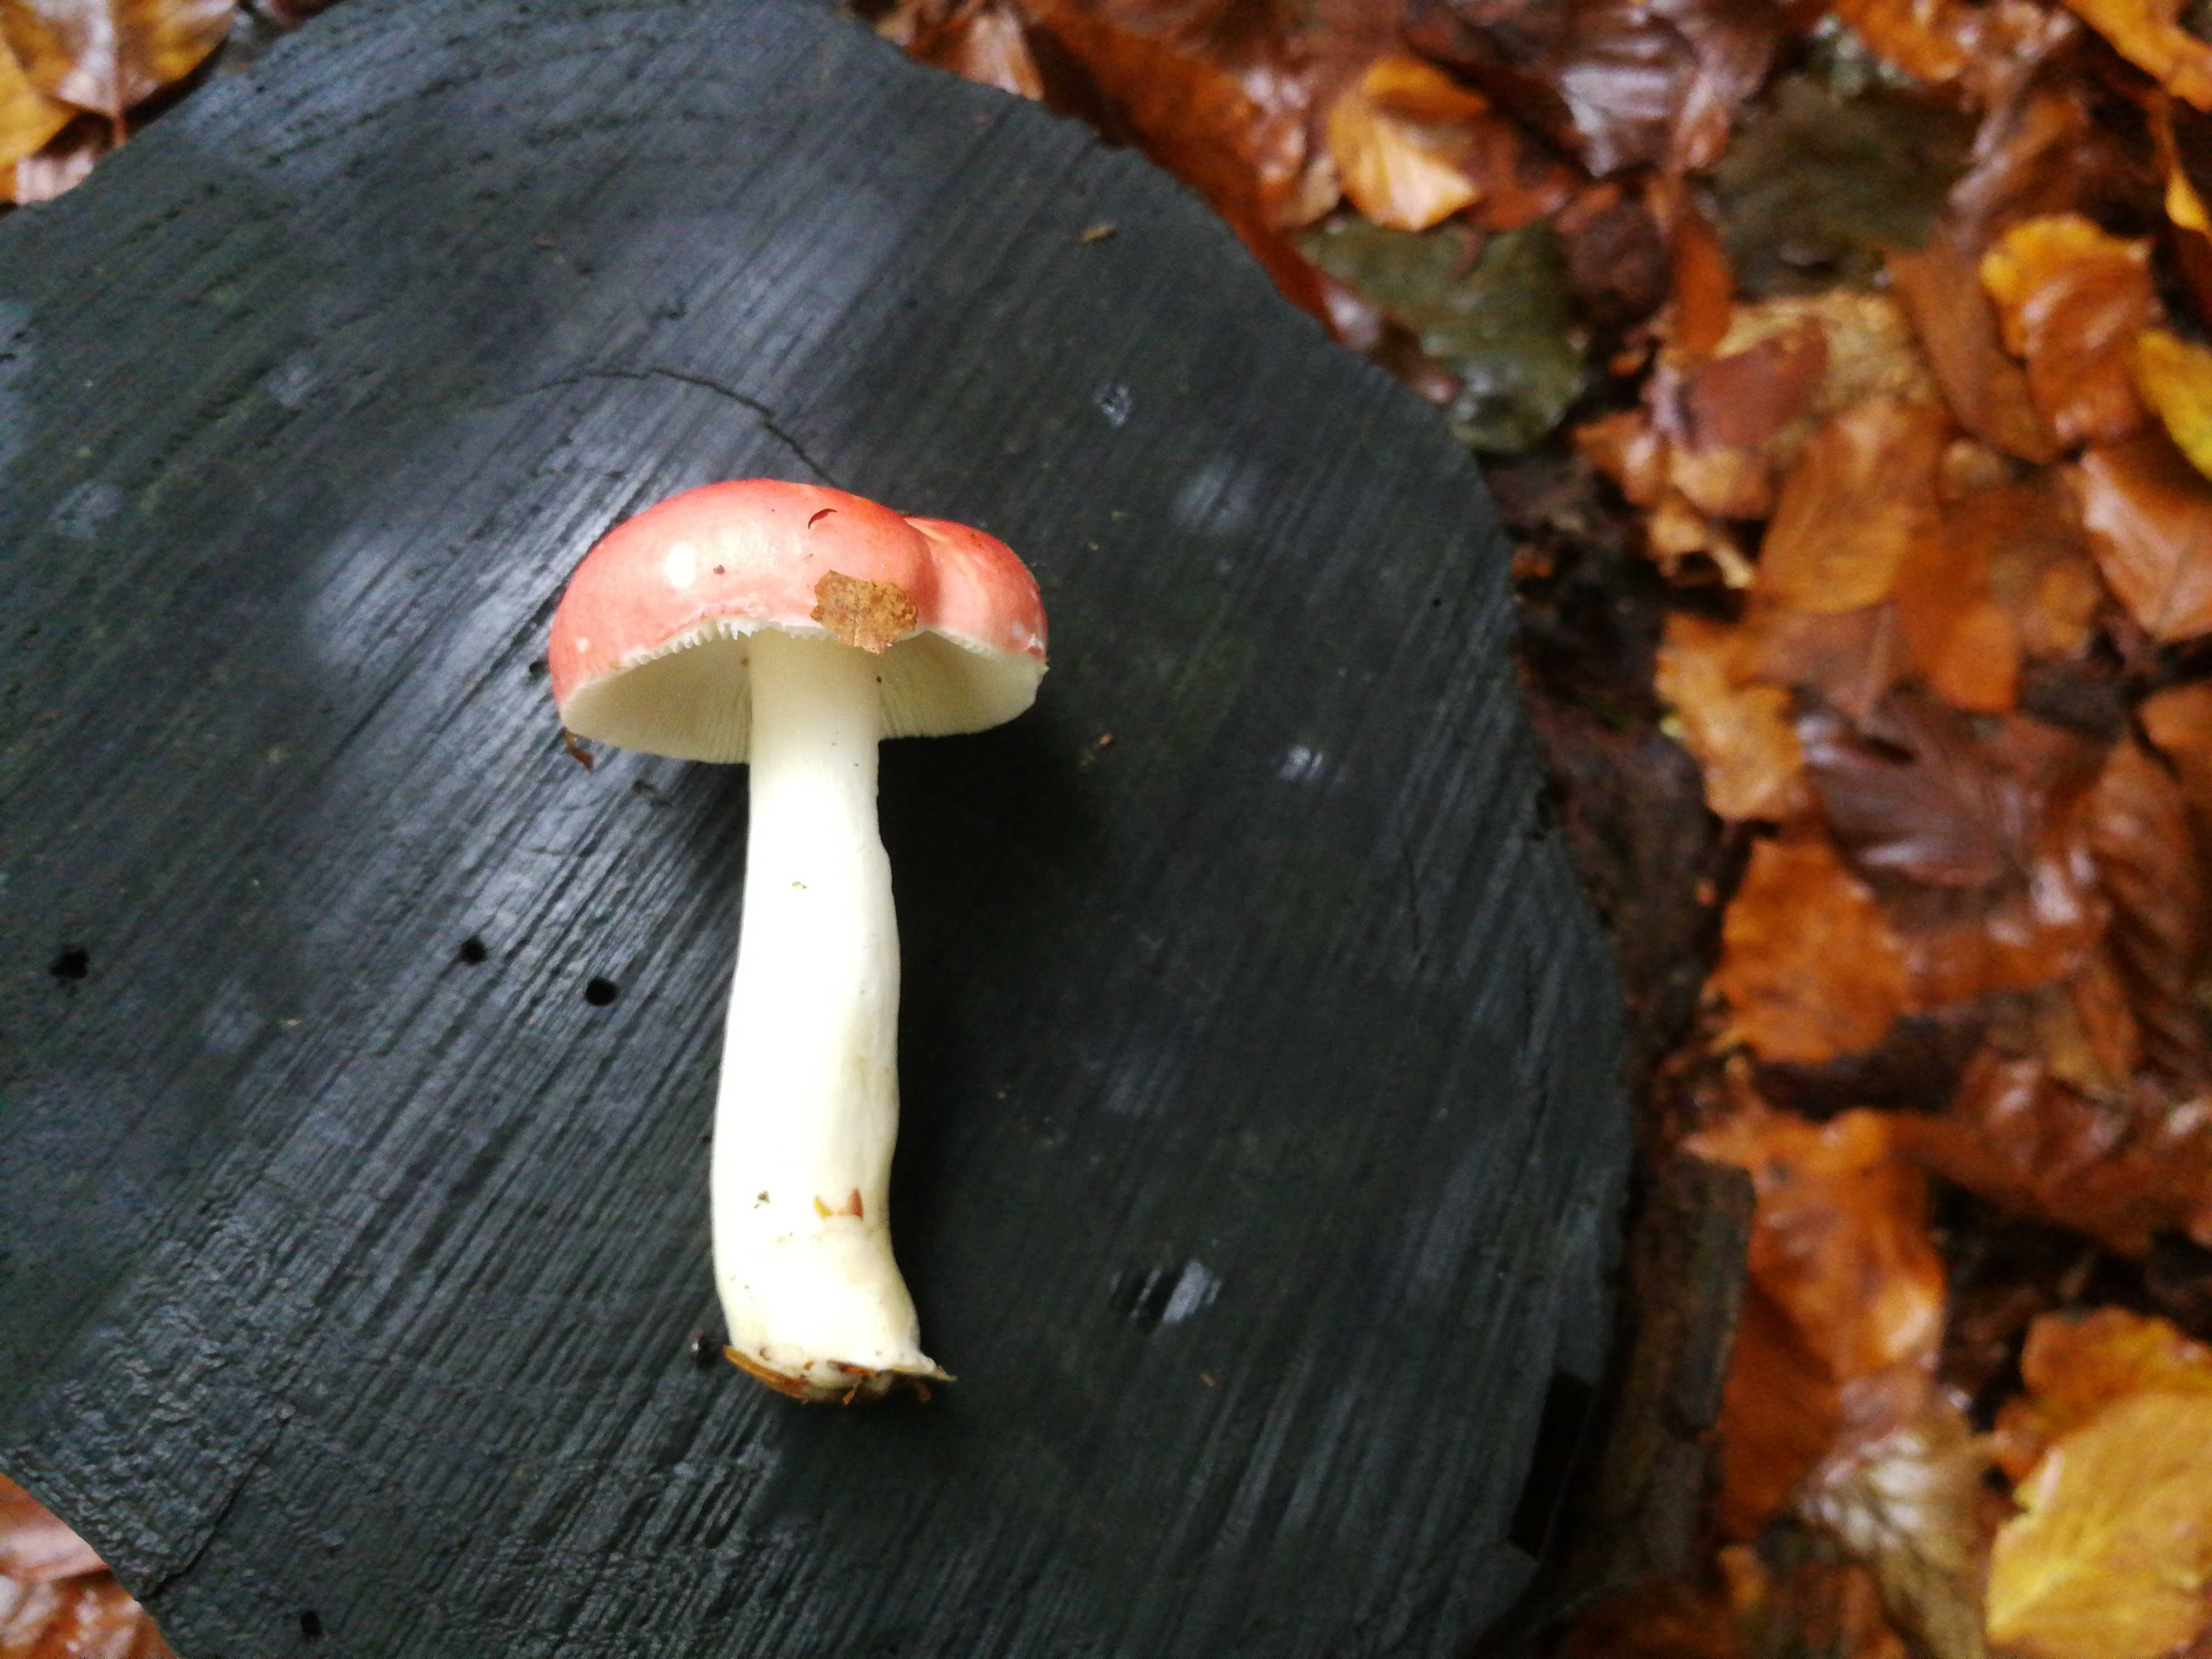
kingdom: Fungi
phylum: Basidiomycota
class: Agaricomycetes
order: Russulales
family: Russulaceae
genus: Russula
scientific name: Russula nobilis
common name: lille gift-skørhat
